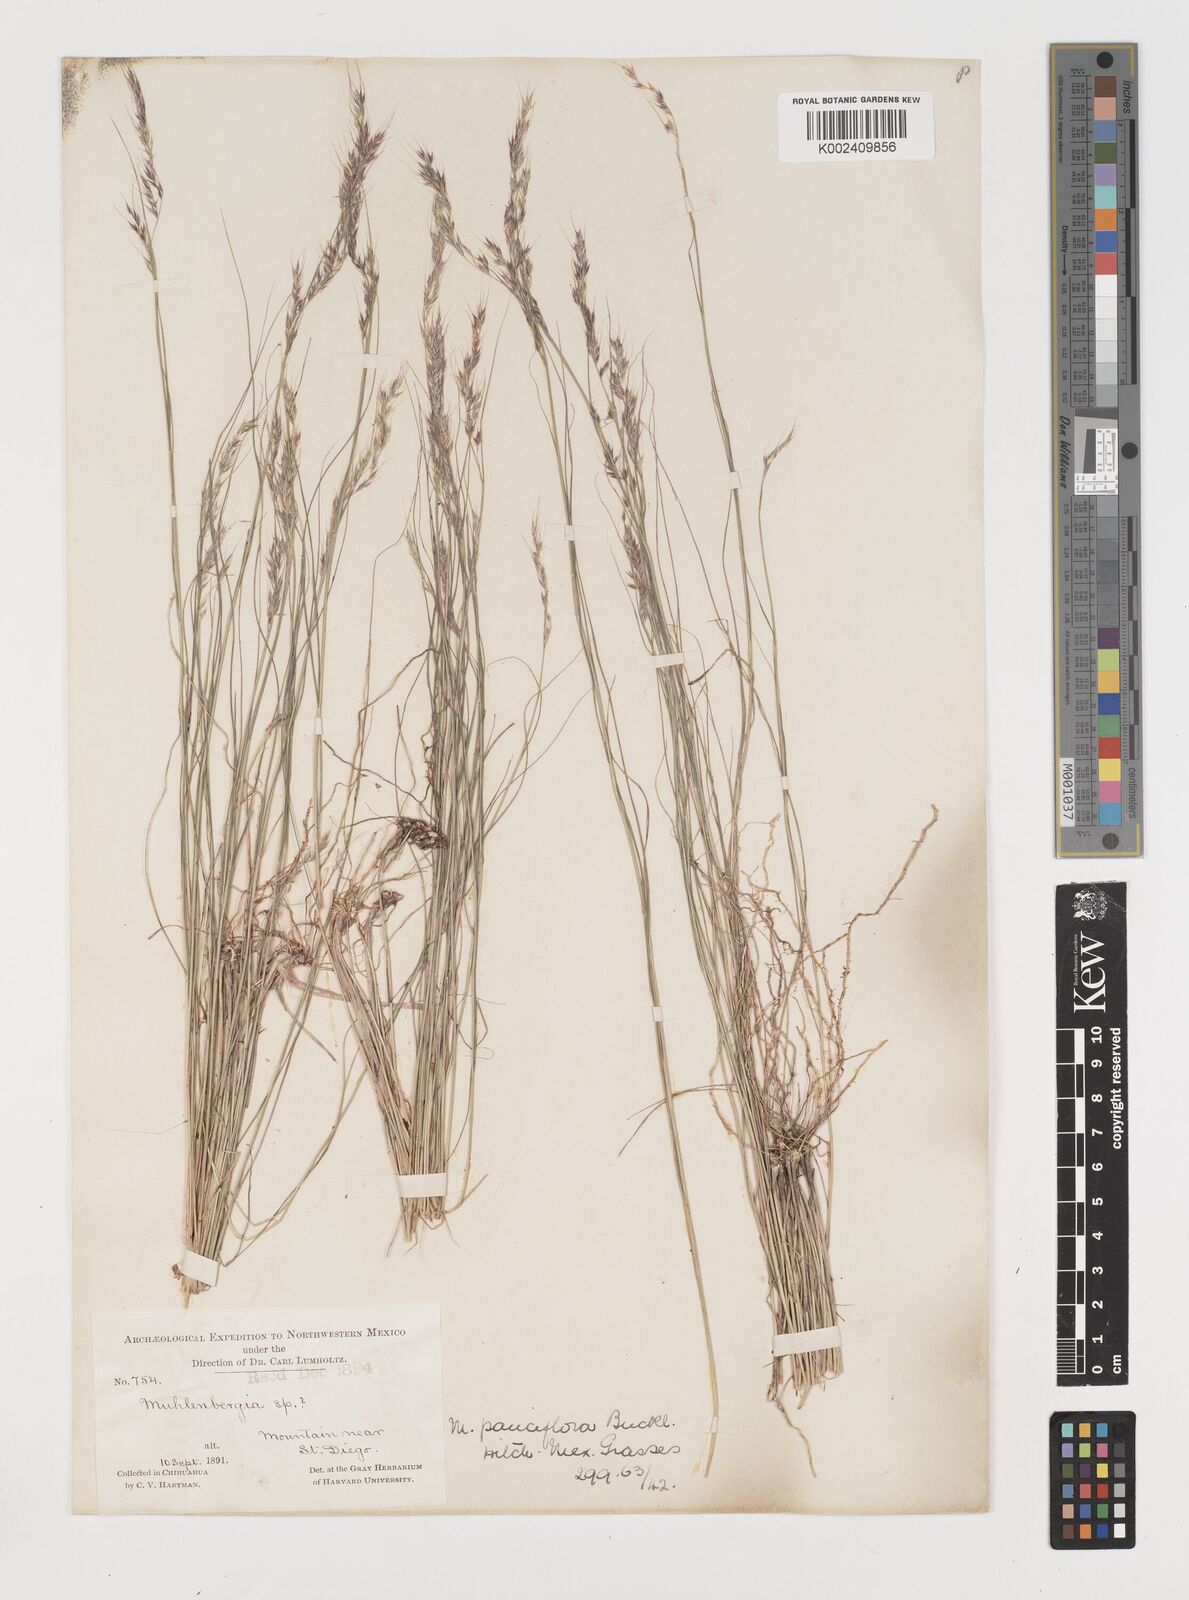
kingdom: Plantae
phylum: Tracheophyta
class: Liliopsida
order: Poales
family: Poaceae
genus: Muhlenbergia
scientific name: Muhlenbergia pauciflora
